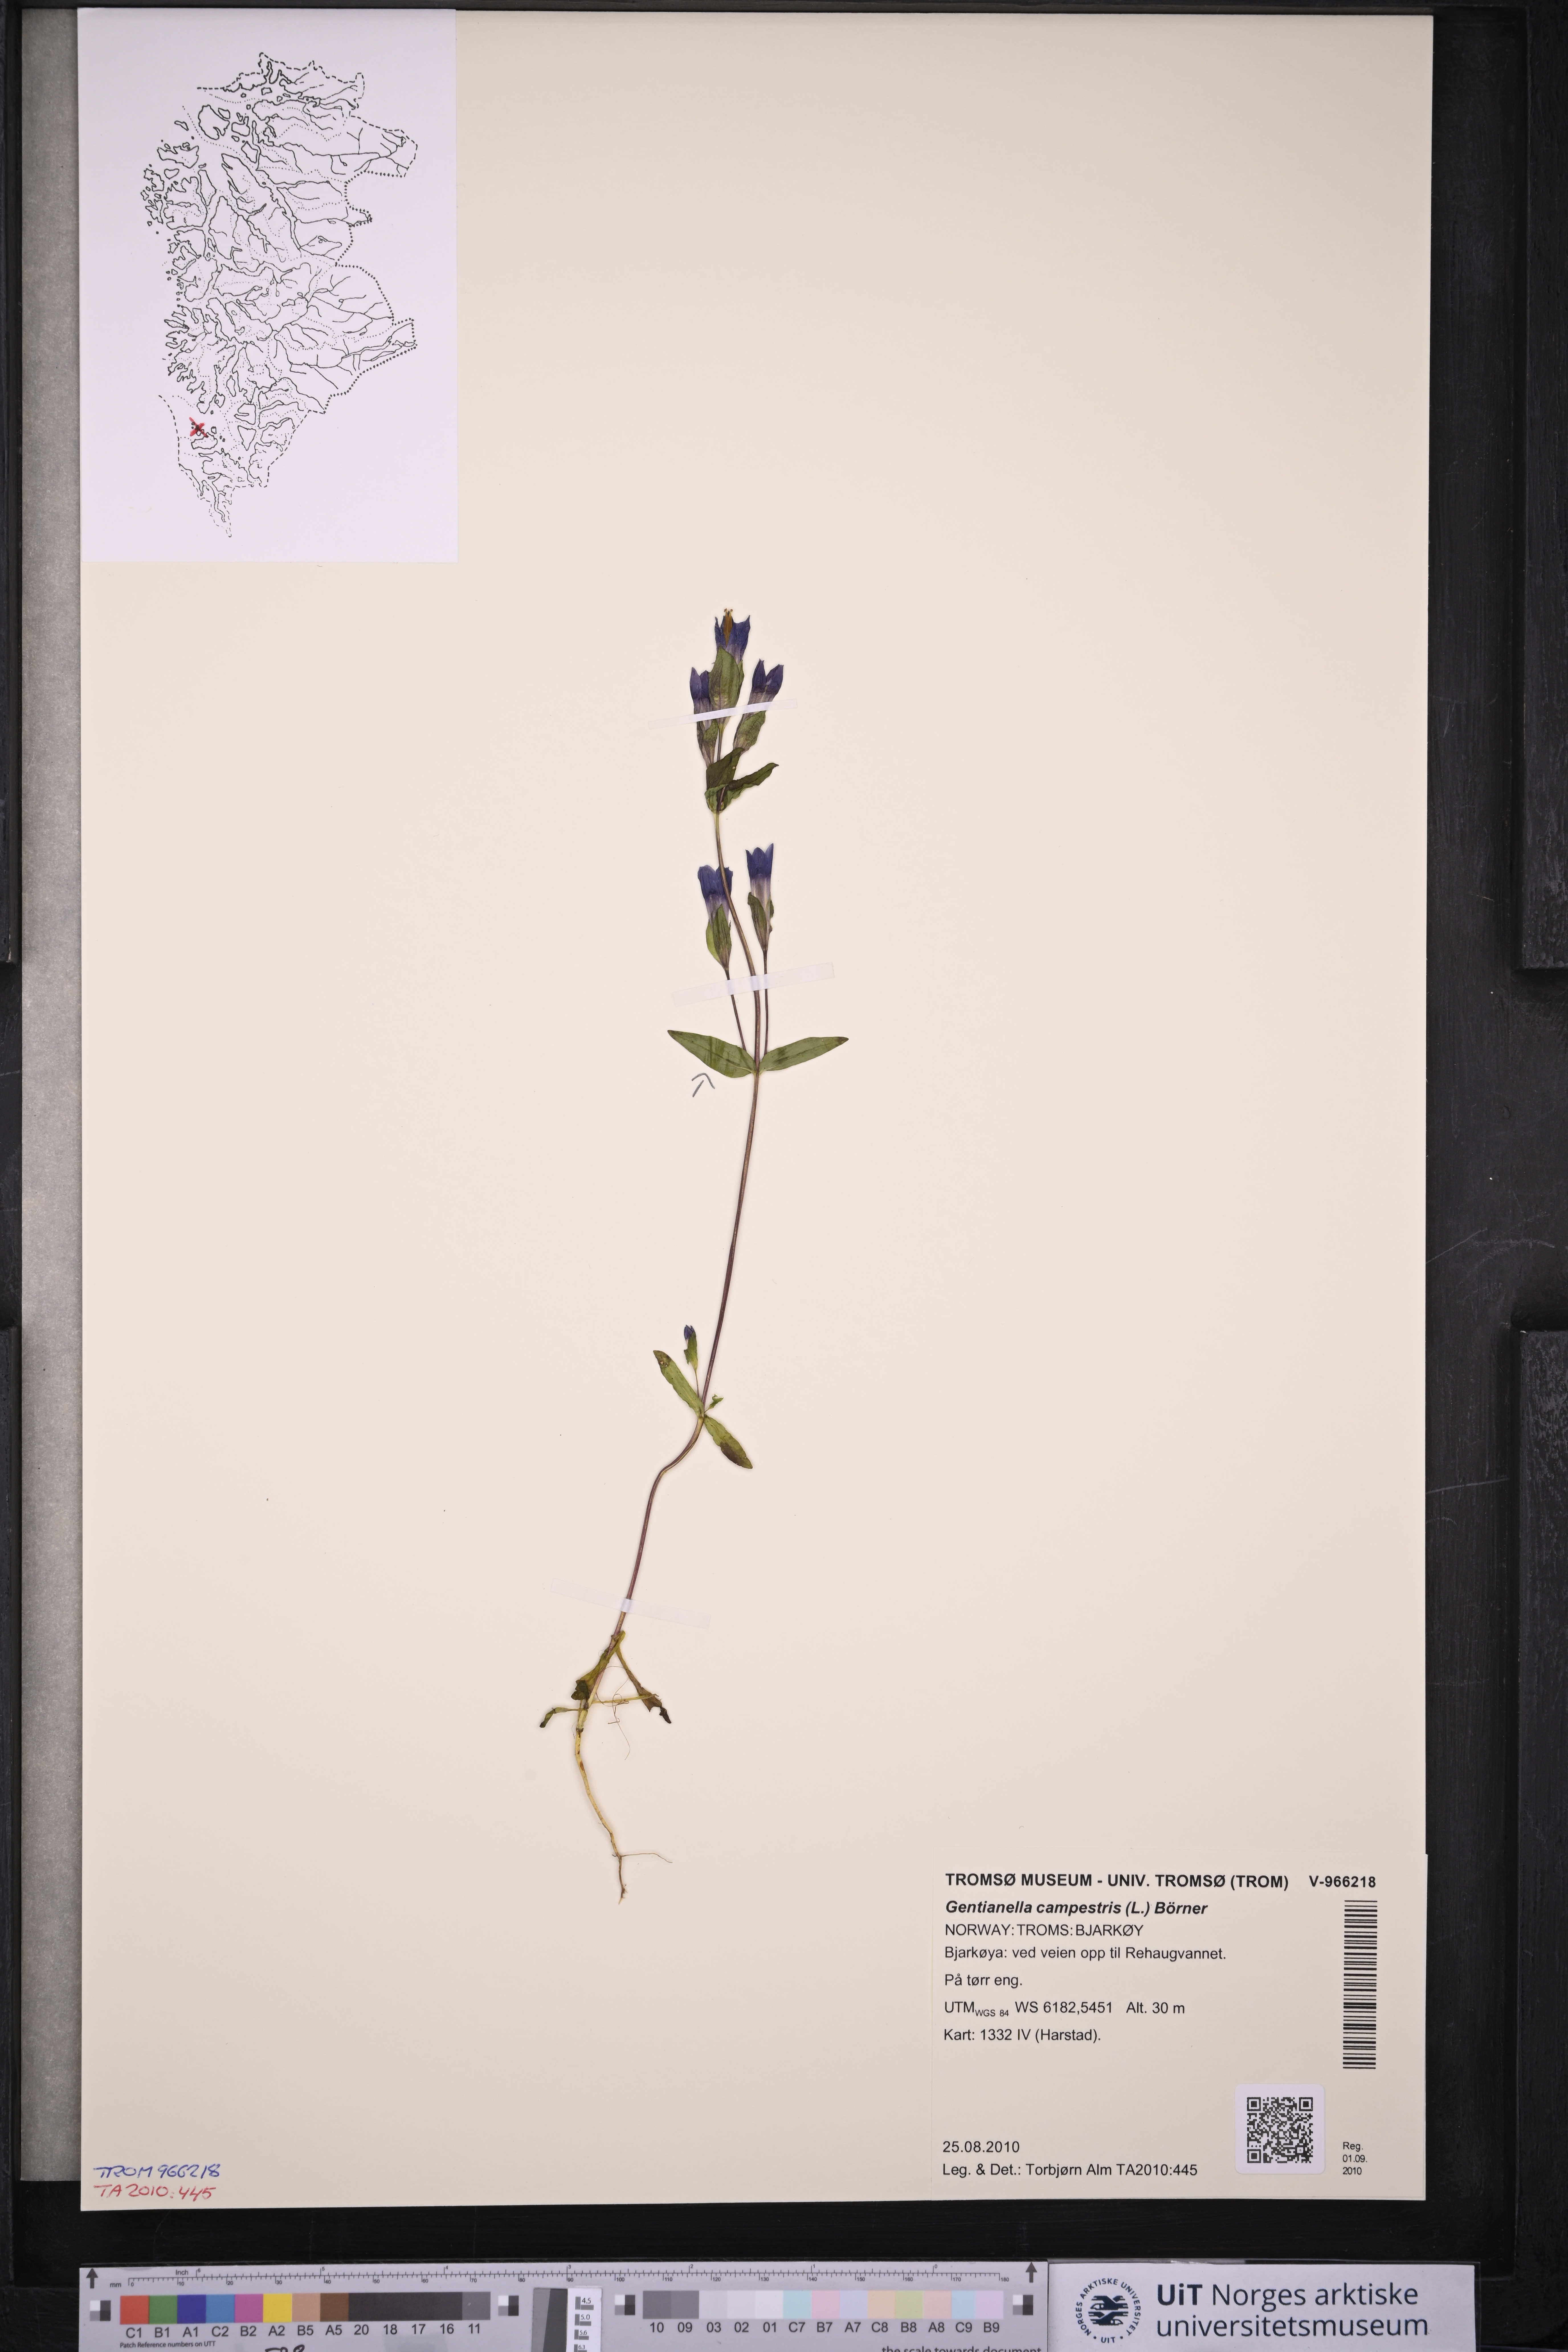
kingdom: Plantae
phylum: Tracheophyta
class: Magnoliopsida
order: Gentianales
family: Gentianaceae
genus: Gentianella
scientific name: Gentianella campestris
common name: Field gentian
